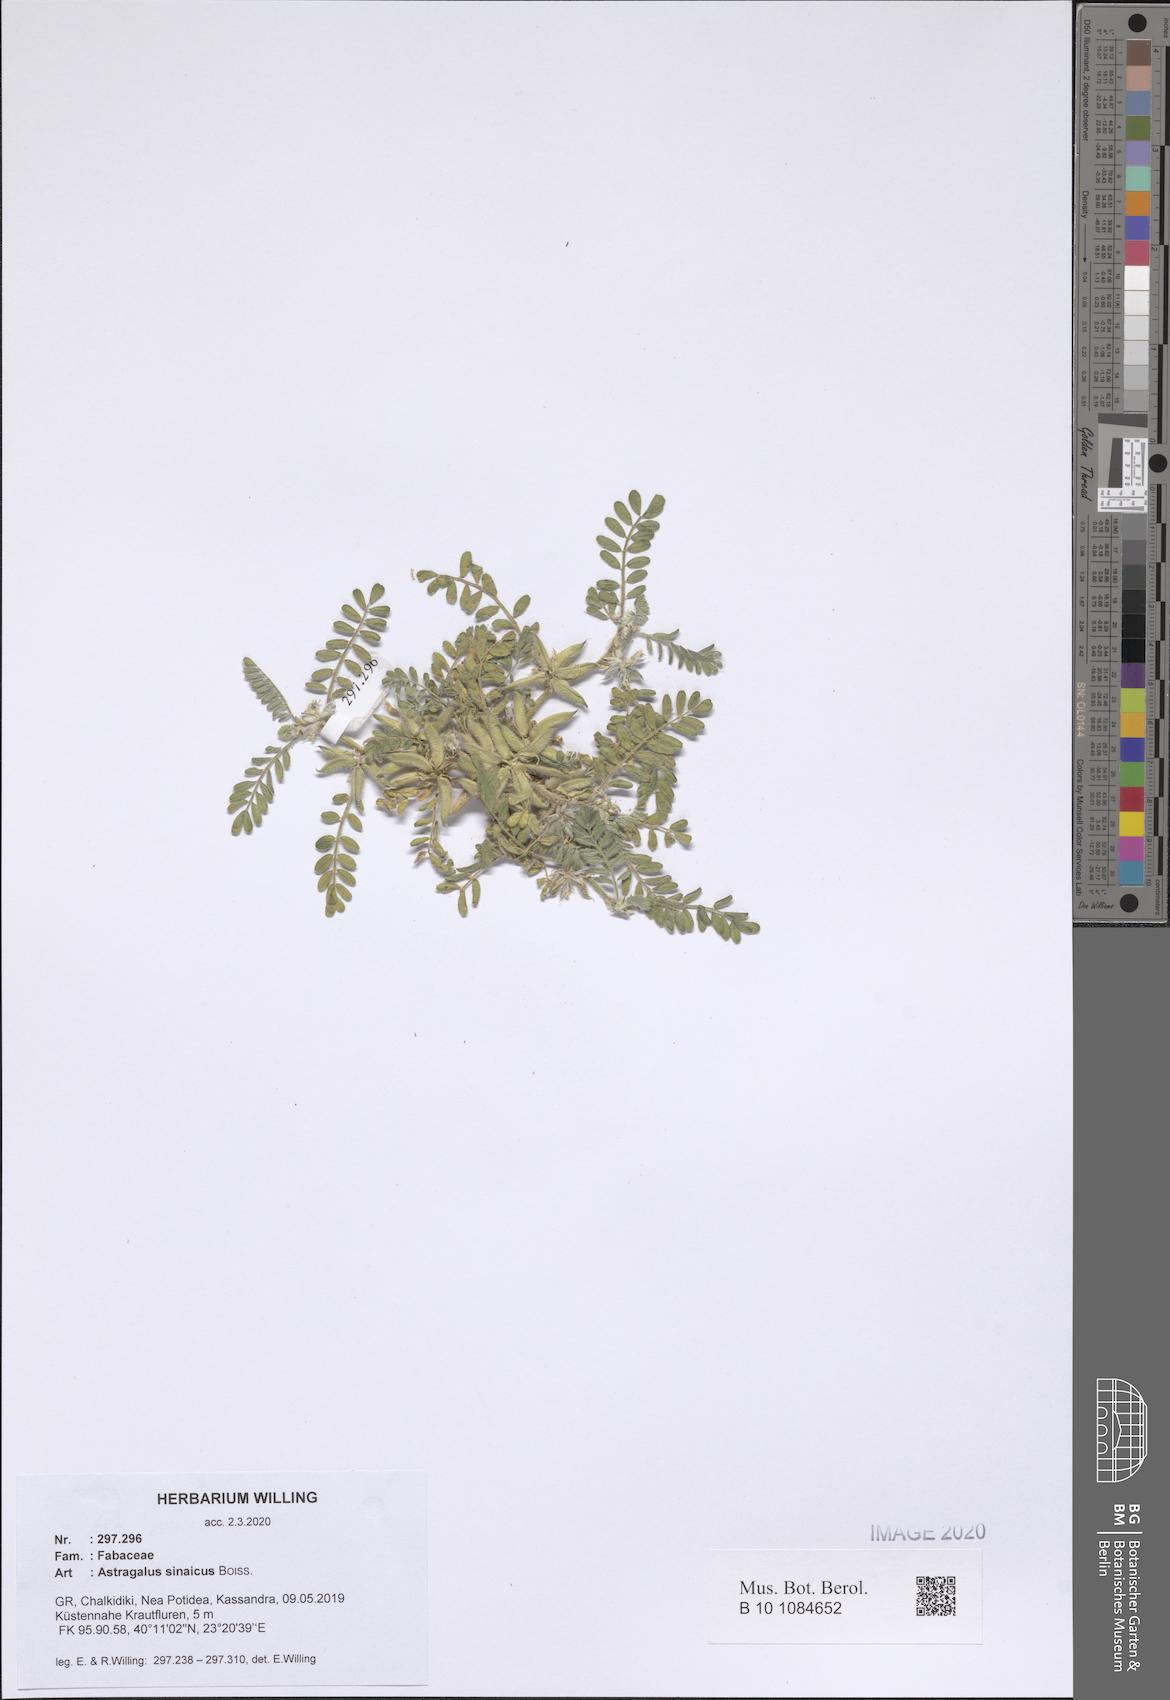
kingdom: Plantae
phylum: Tracheophyta
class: Magnoliopsida
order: Fabales
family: Fabaceae
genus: Astragalus
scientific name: Astragalus sinaicus
